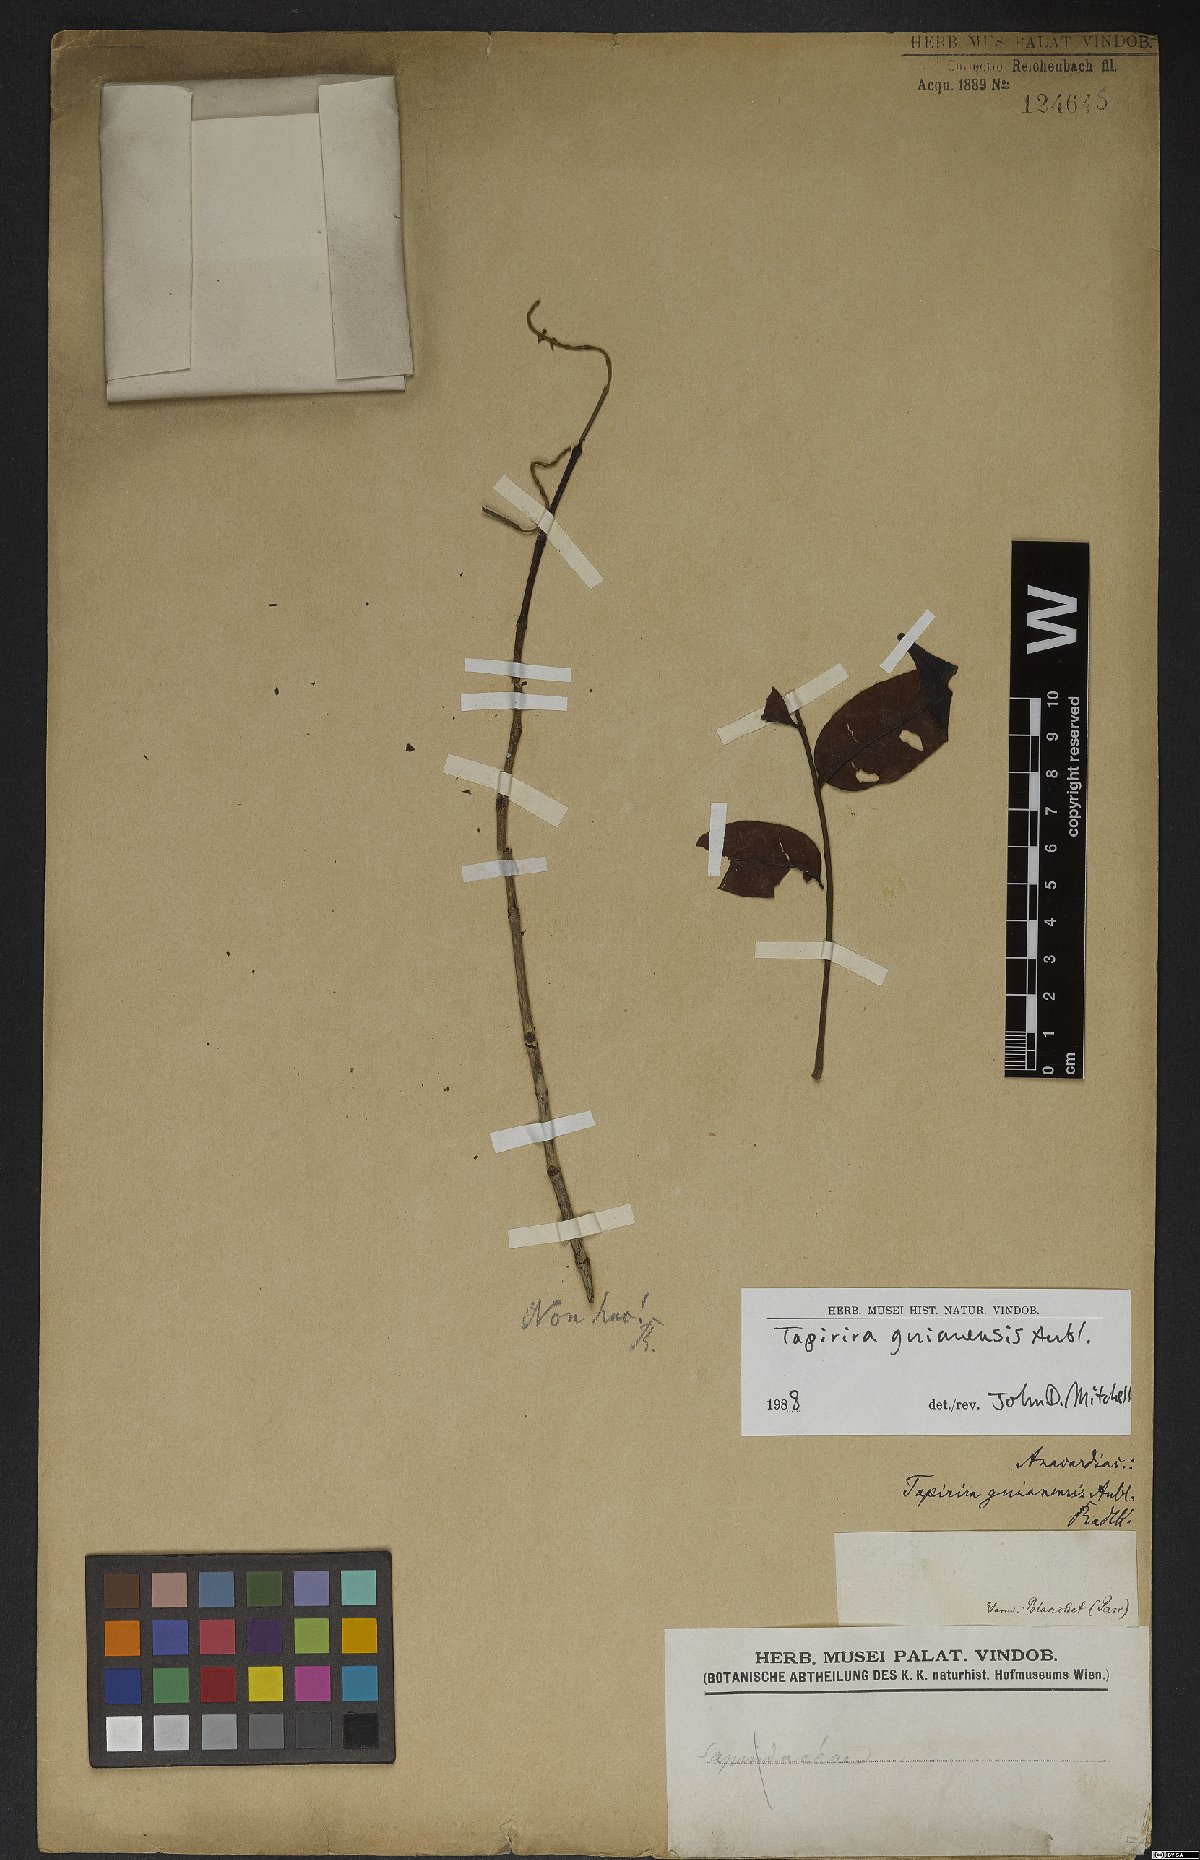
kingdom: Plantae
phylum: Tracheophyta
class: Magnoliopsida
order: Sapindales
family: Anacardiaceae
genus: Tapirira
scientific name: Tapirira guianensis
